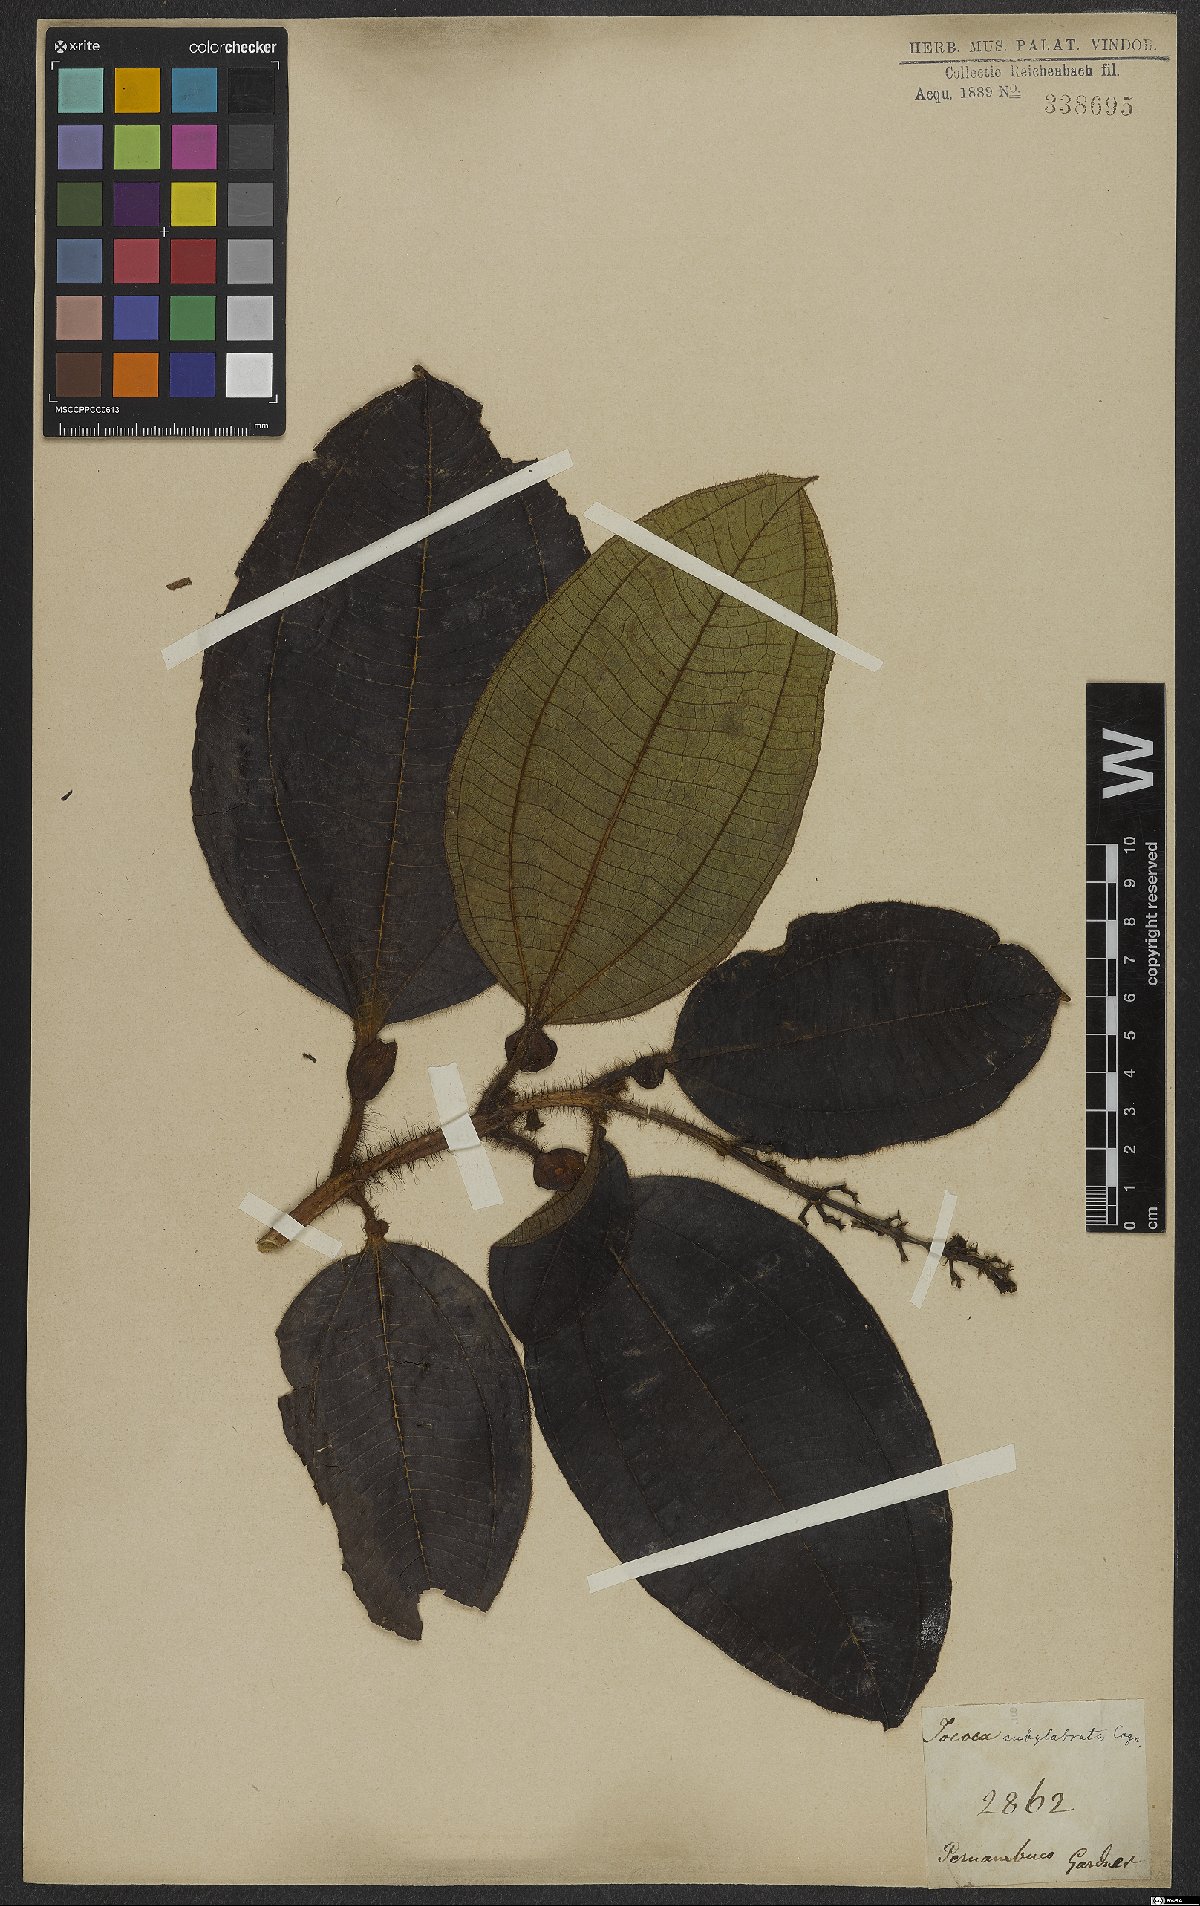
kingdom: Plantae
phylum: Tracheophyta
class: Magnoliopsida
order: Myrtales
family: Melastomataceae
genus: Miconia
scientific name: Miconia tococa
